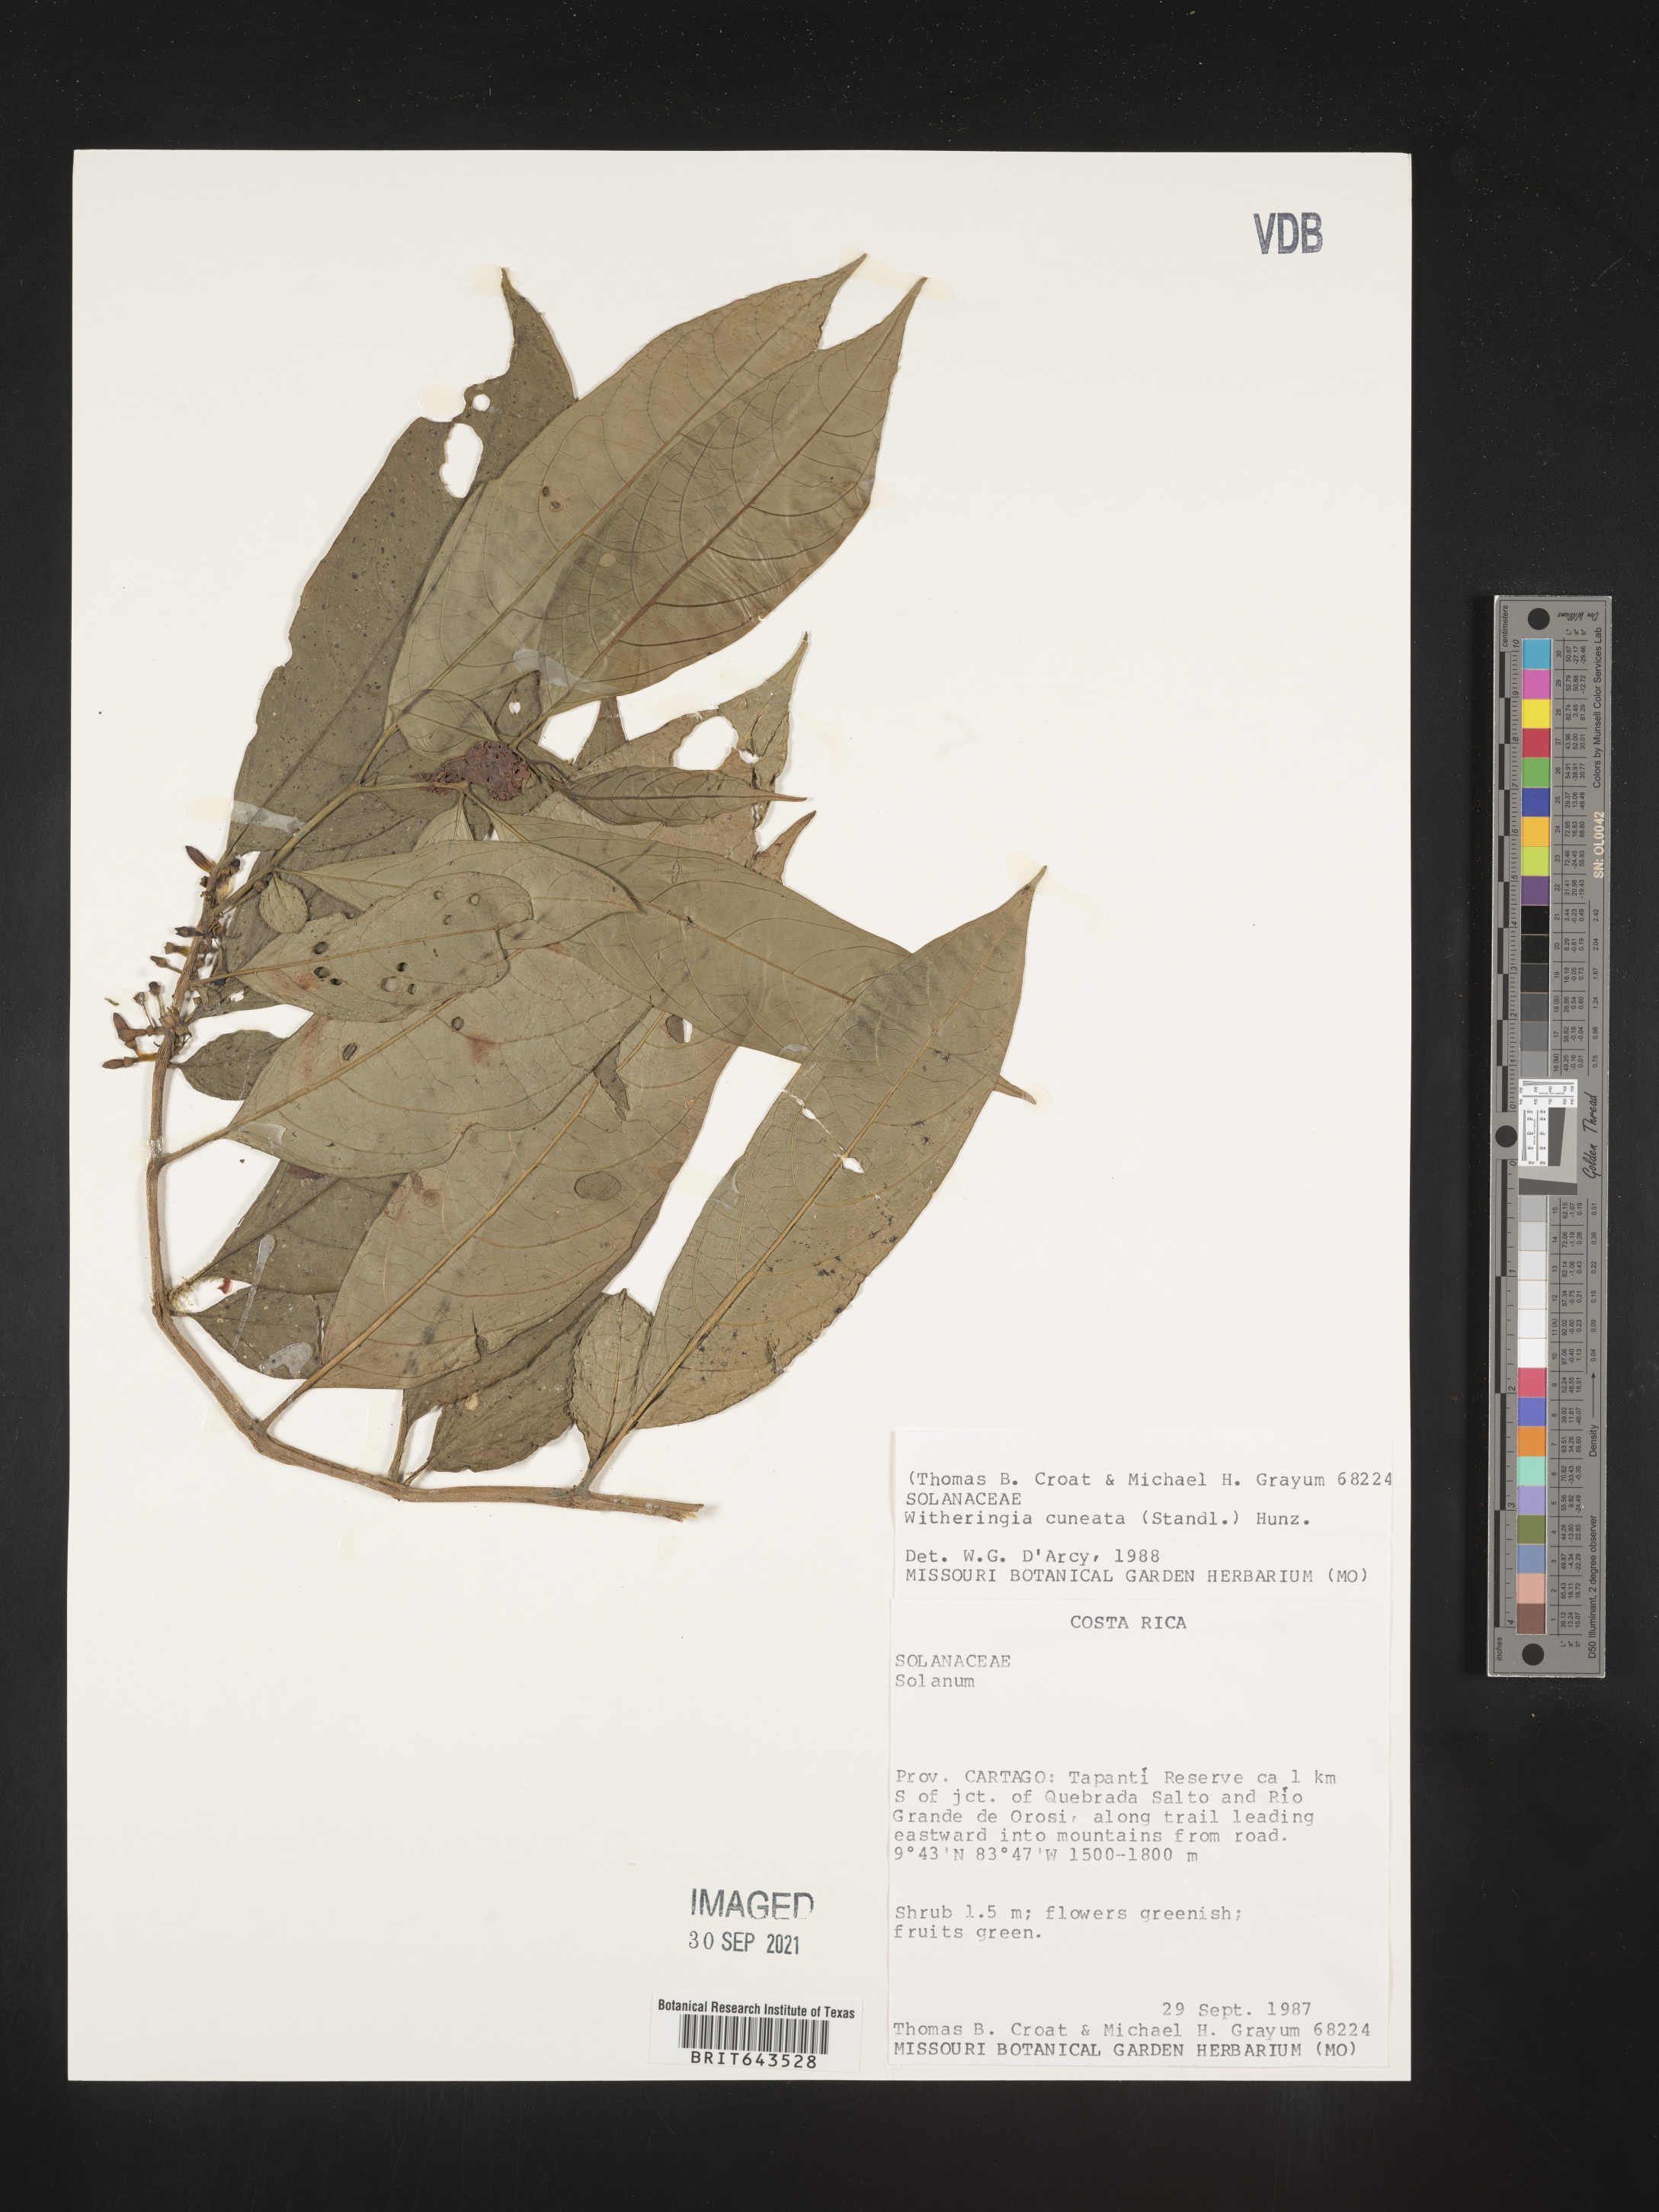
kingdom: Plantae
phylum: Tracheophyta
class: Magnoliopsida
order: Solanales
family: Solanaceae
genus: Witheringia
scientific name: Witheringia
